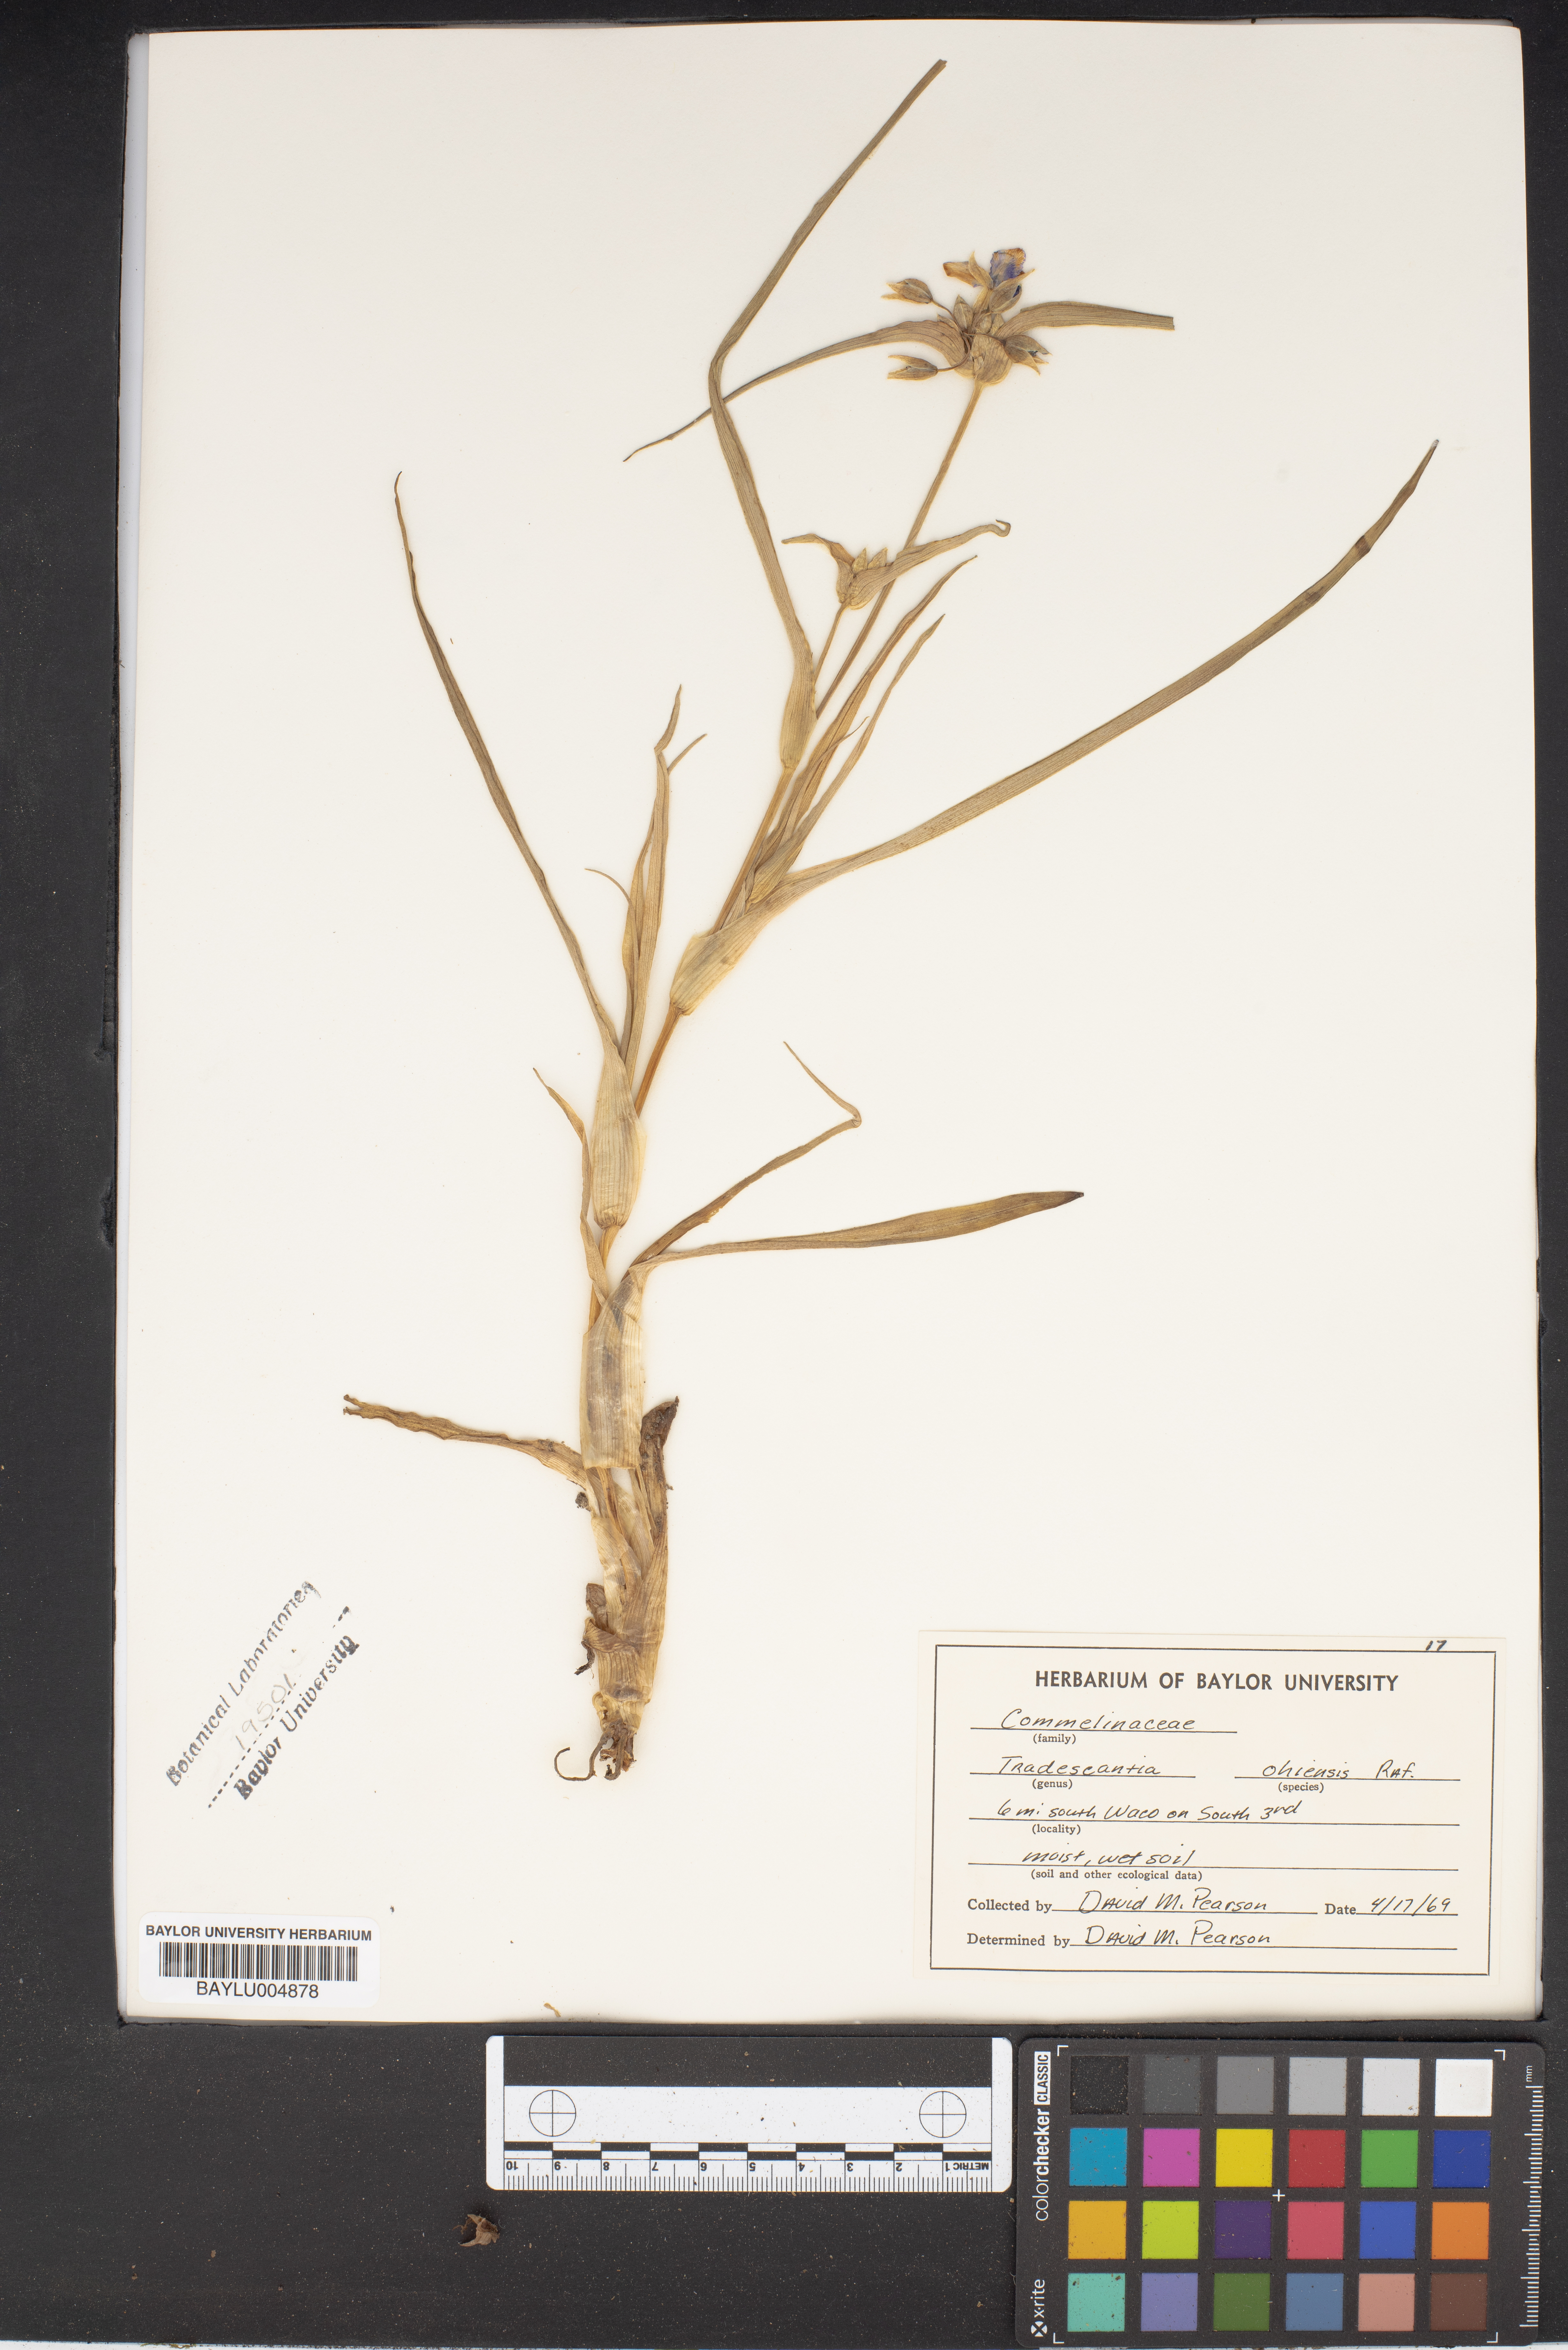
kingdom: Plantae
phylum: Tracheophyta
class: Liliopsida
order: Commelinales
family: Commelinaceae
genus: Tradescantia
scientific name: Tradescantia ohiensis
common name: Ohio spiderwort
